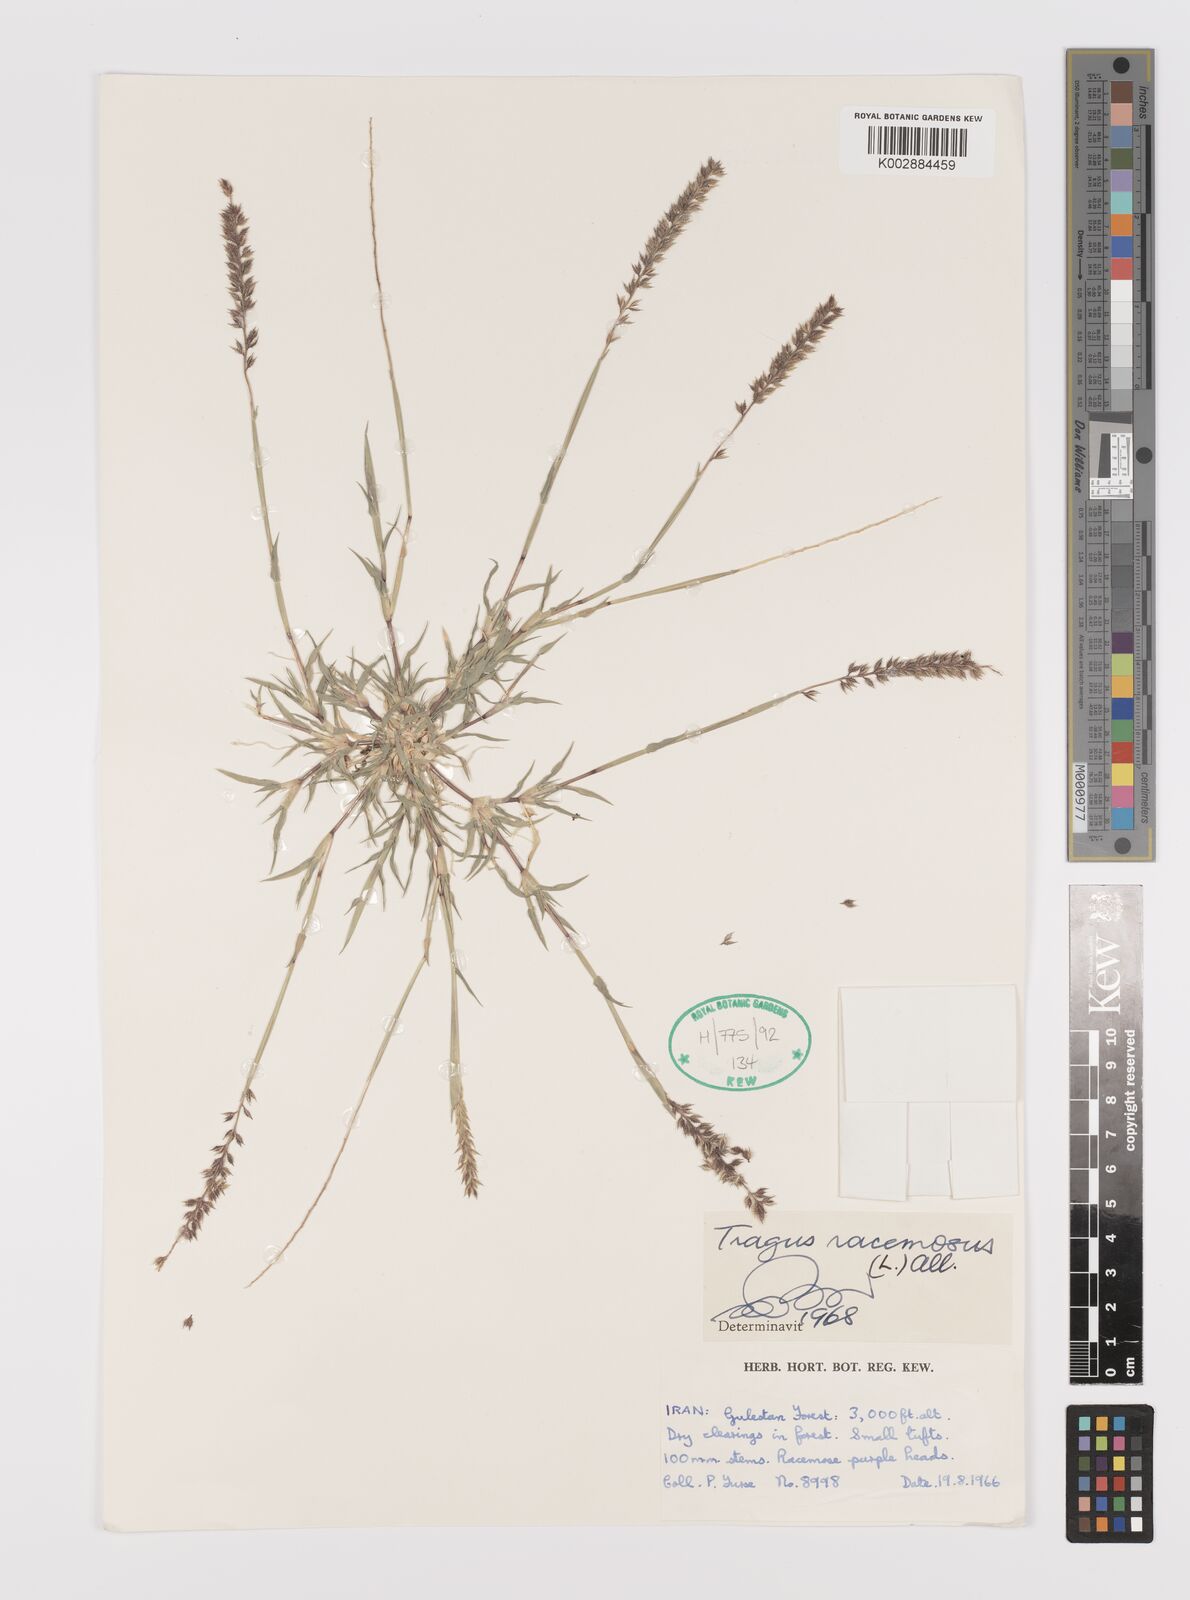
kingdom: Plantae
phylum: Tracheophyta
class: Liliopsida
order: Poales
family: Poaceae
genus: Tragus
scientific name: Tragus racemosus
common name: European bur-grass
